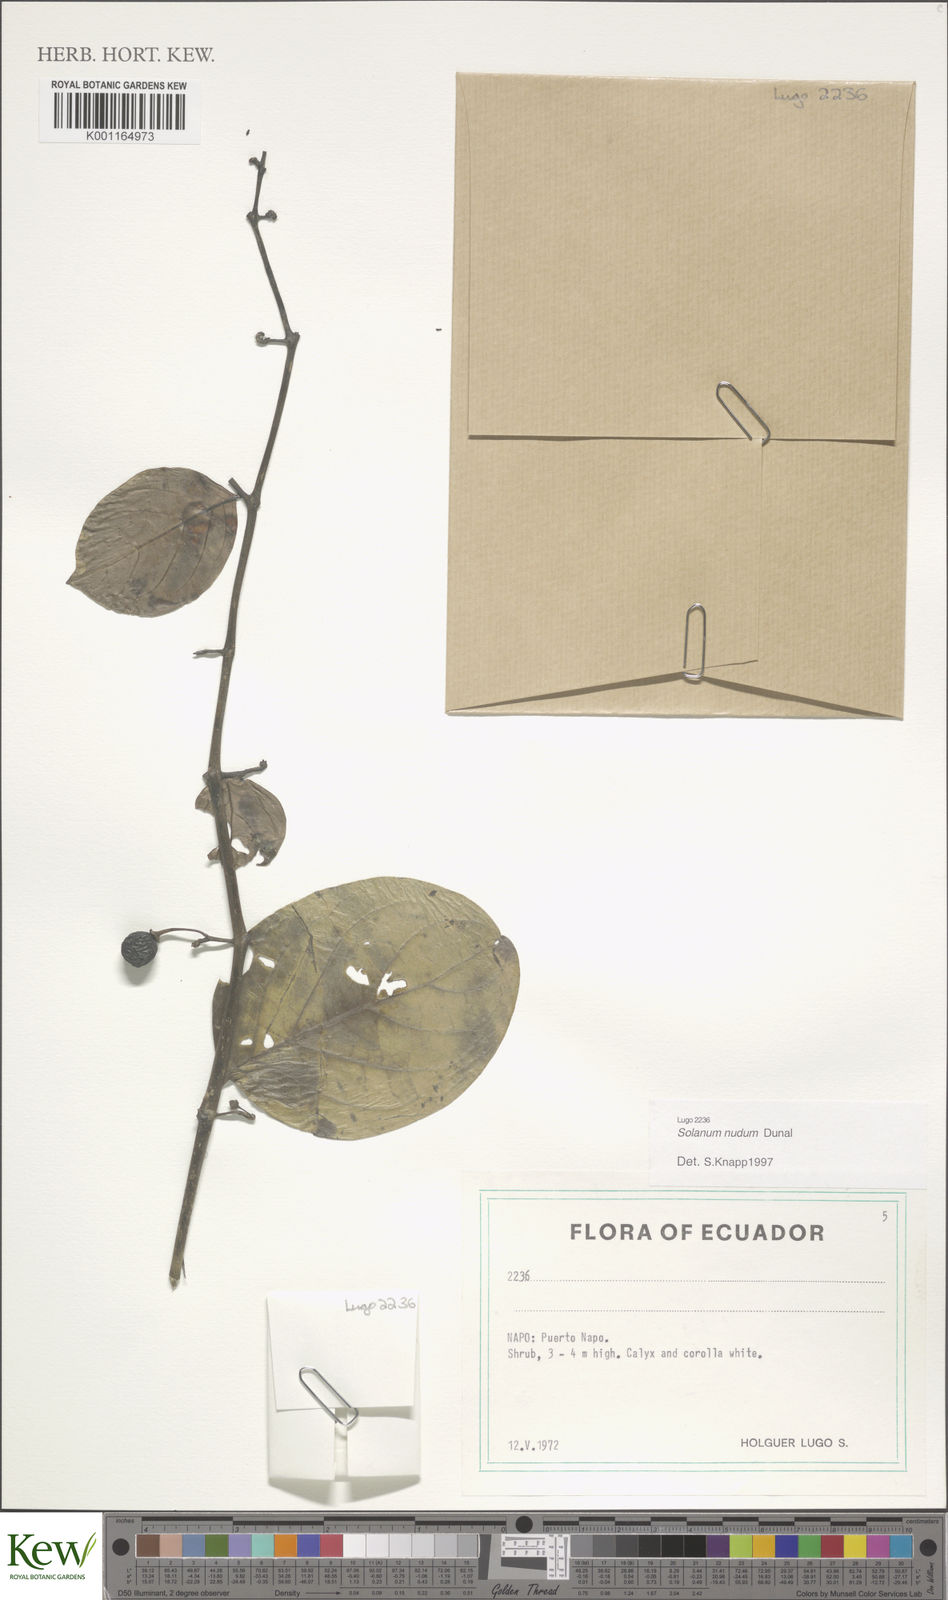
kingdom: Plantae
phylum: Tracheophyta
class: Magnoliopsida
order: Solanales
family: Solanaceae
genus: Solanum
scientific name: Solanum nudum
